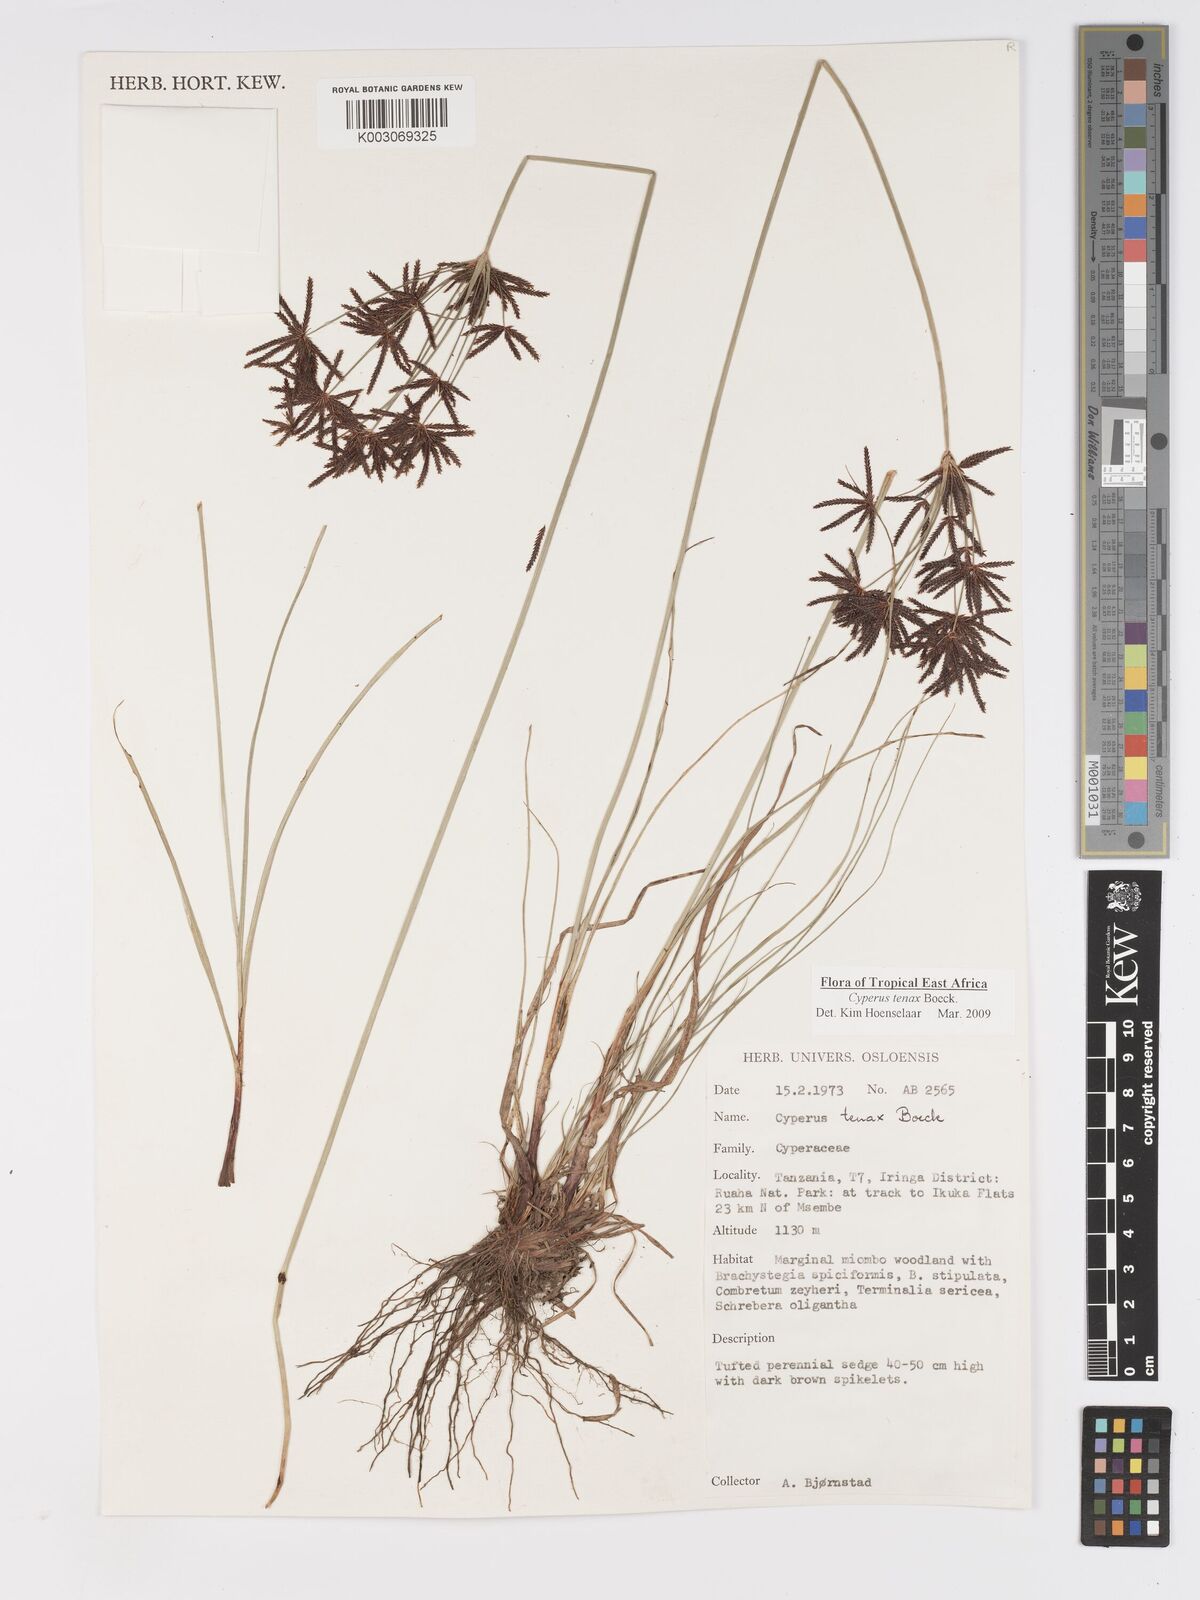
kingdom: Plantae
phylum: Tracheophyta
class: Liliopsida
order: Poales
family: Cyperaceae
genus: Cyperus
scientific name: Cyperus tenax
